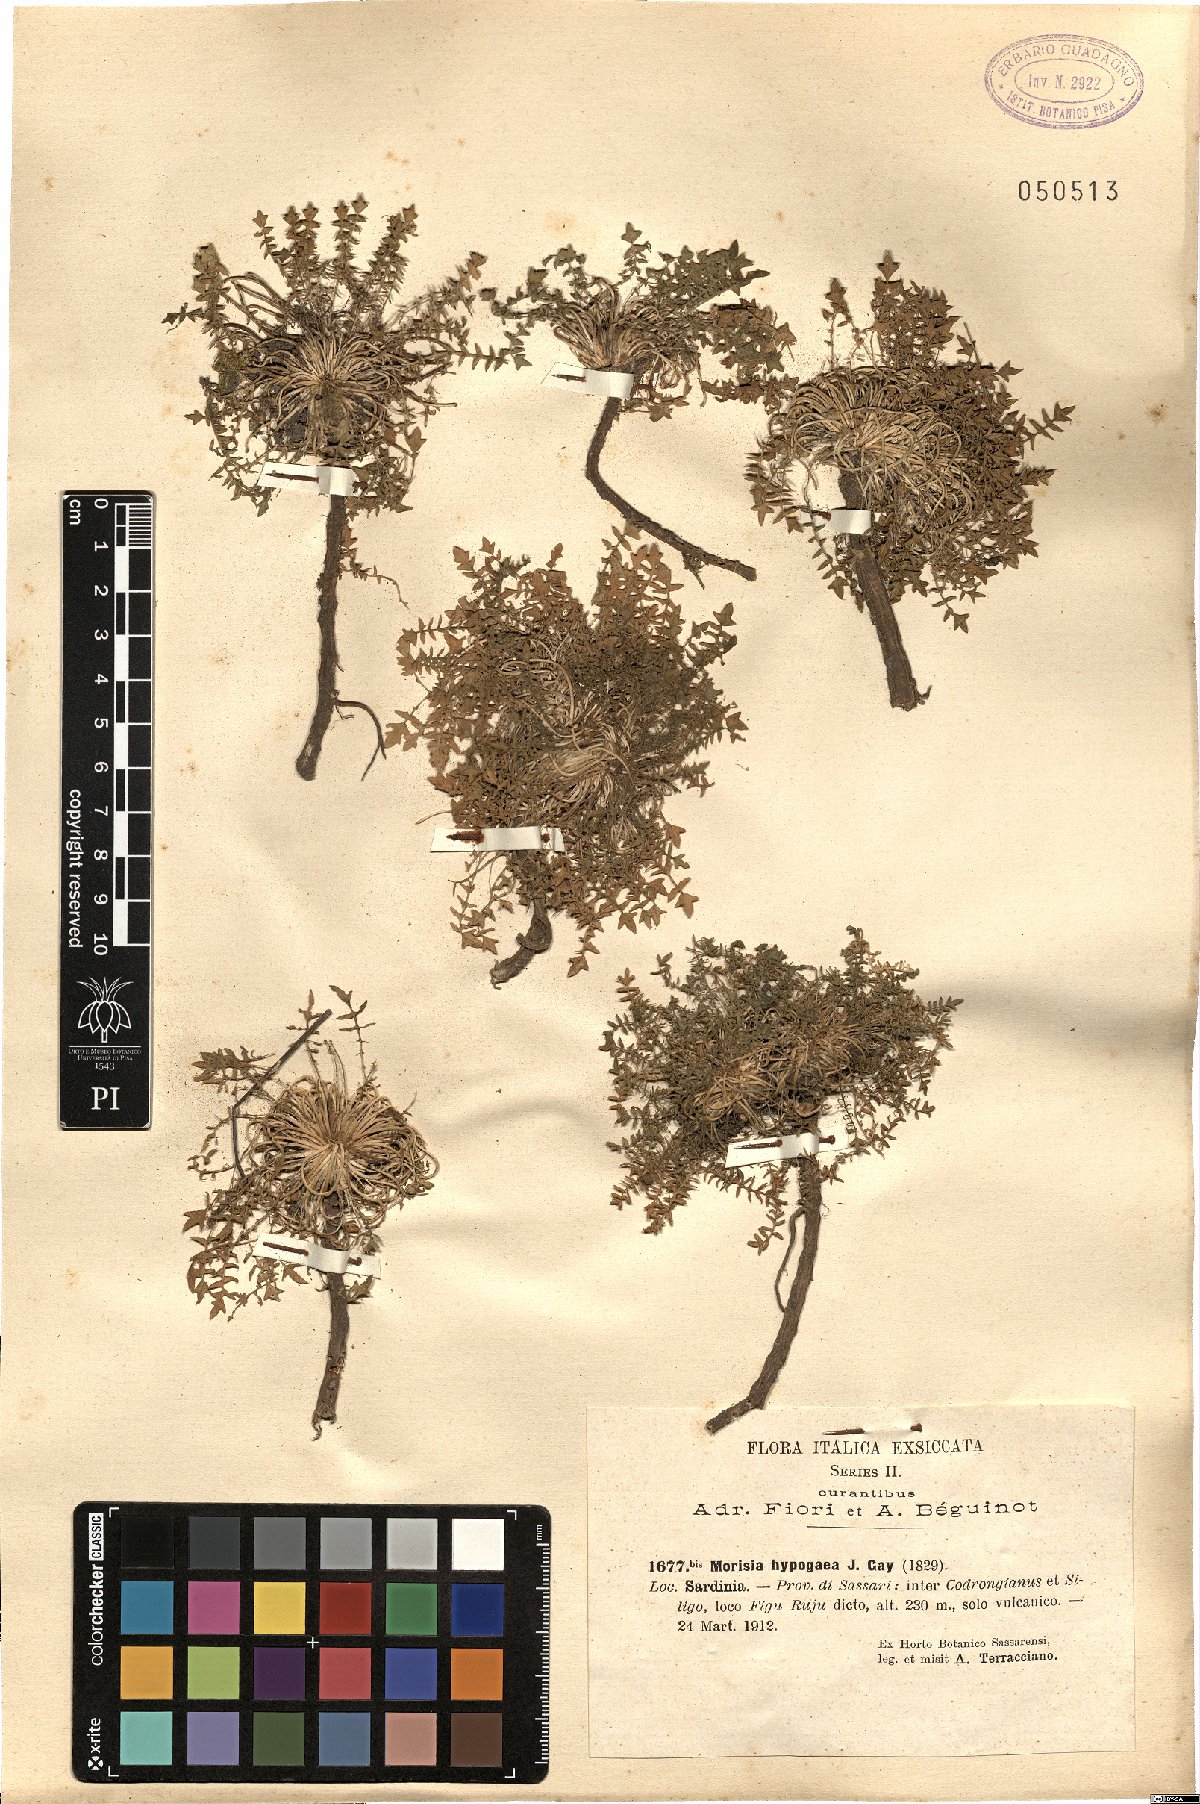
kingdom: Plantae
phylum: Tracheophyta
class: Magnoliopsida
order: Brassicales
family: Brassicaceae
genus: Morisia
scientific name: Morisia hypogaea
